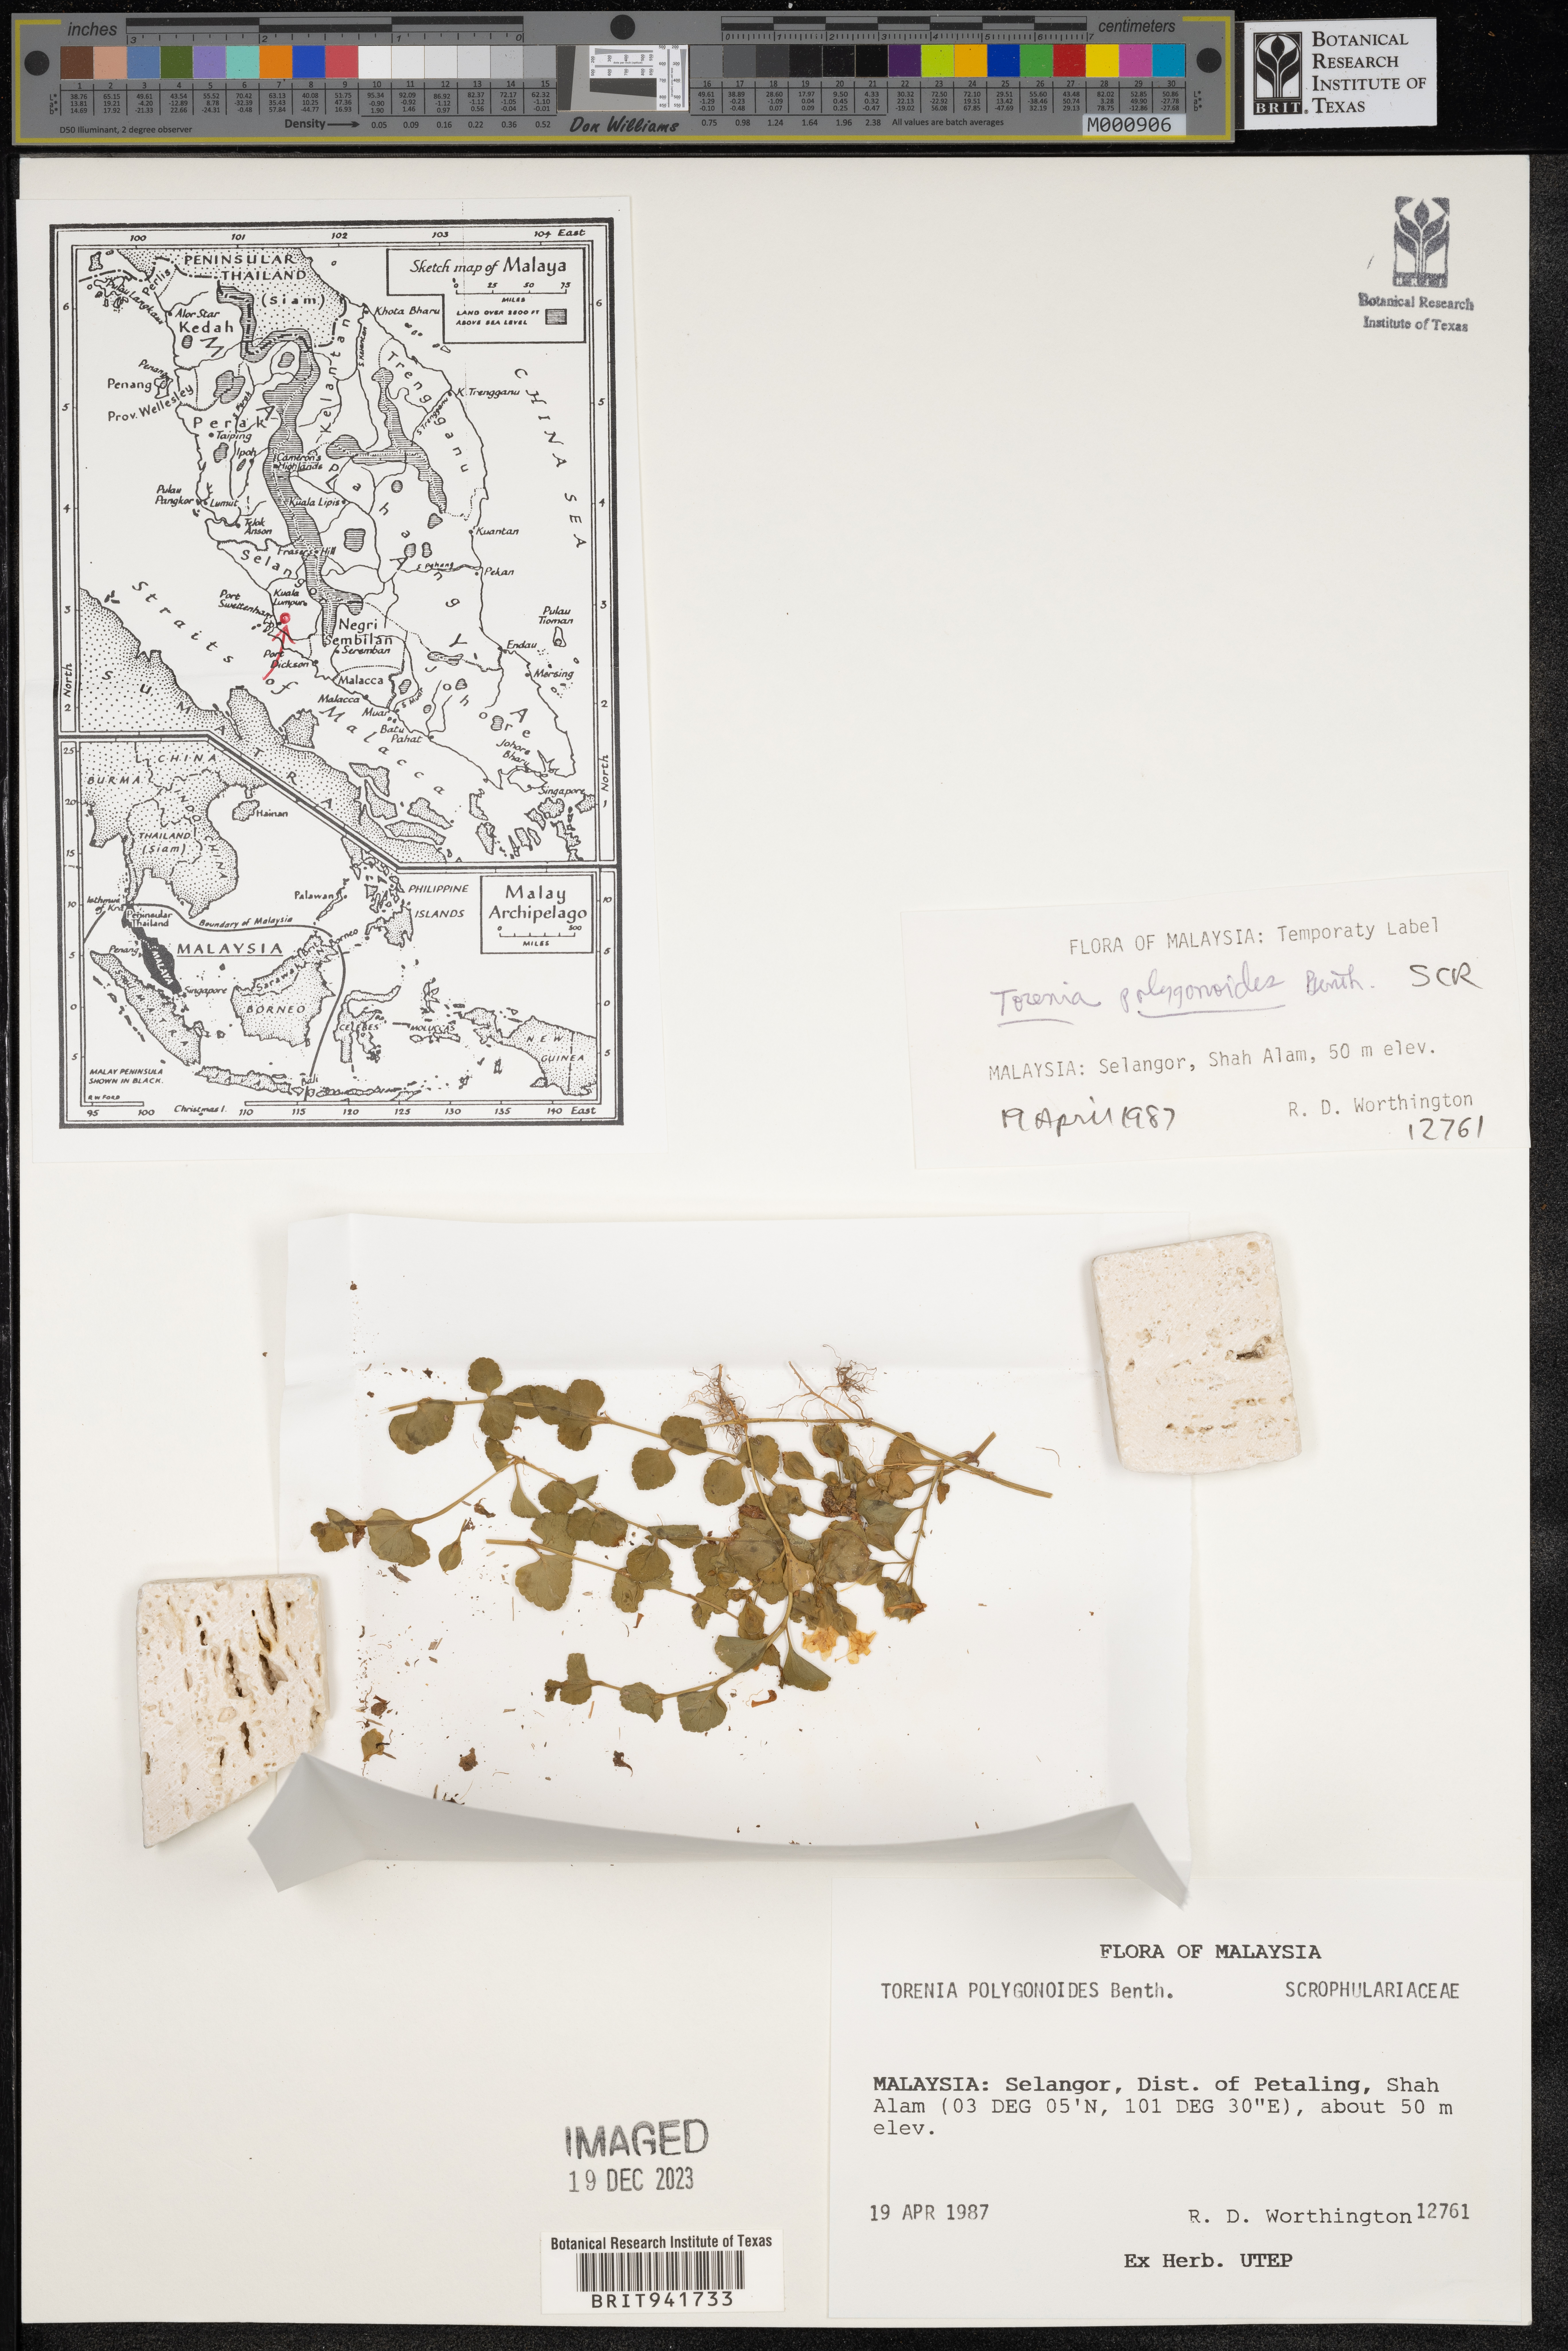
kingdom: Plantae
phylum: Tracheophyta
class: Magnoliopsida
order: Lamiales
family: Linderniaceae
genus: Torenia
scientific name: Torenia
